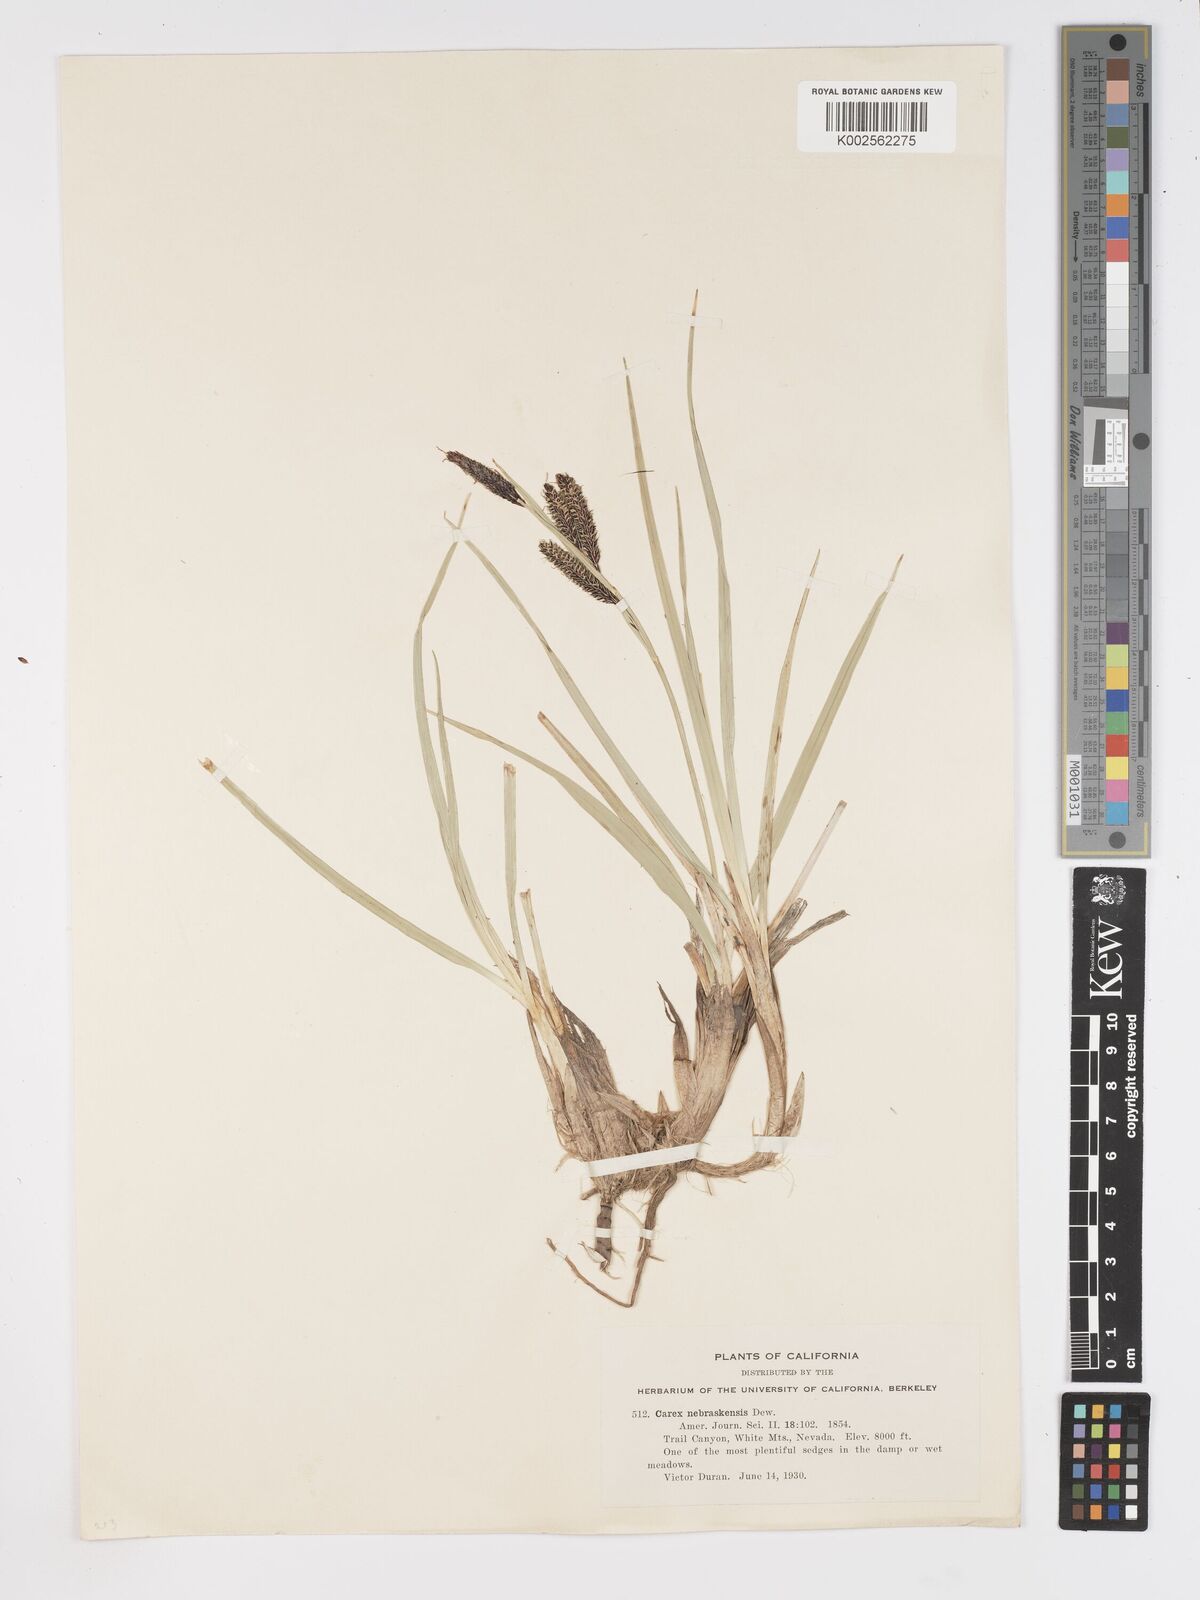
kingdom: Plantae
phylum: Tracheophyta
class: Liliopsida
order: Poales
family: Cyperaceae
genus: Carex
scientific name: Carex nebrascensis
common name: Nebraska sedge
